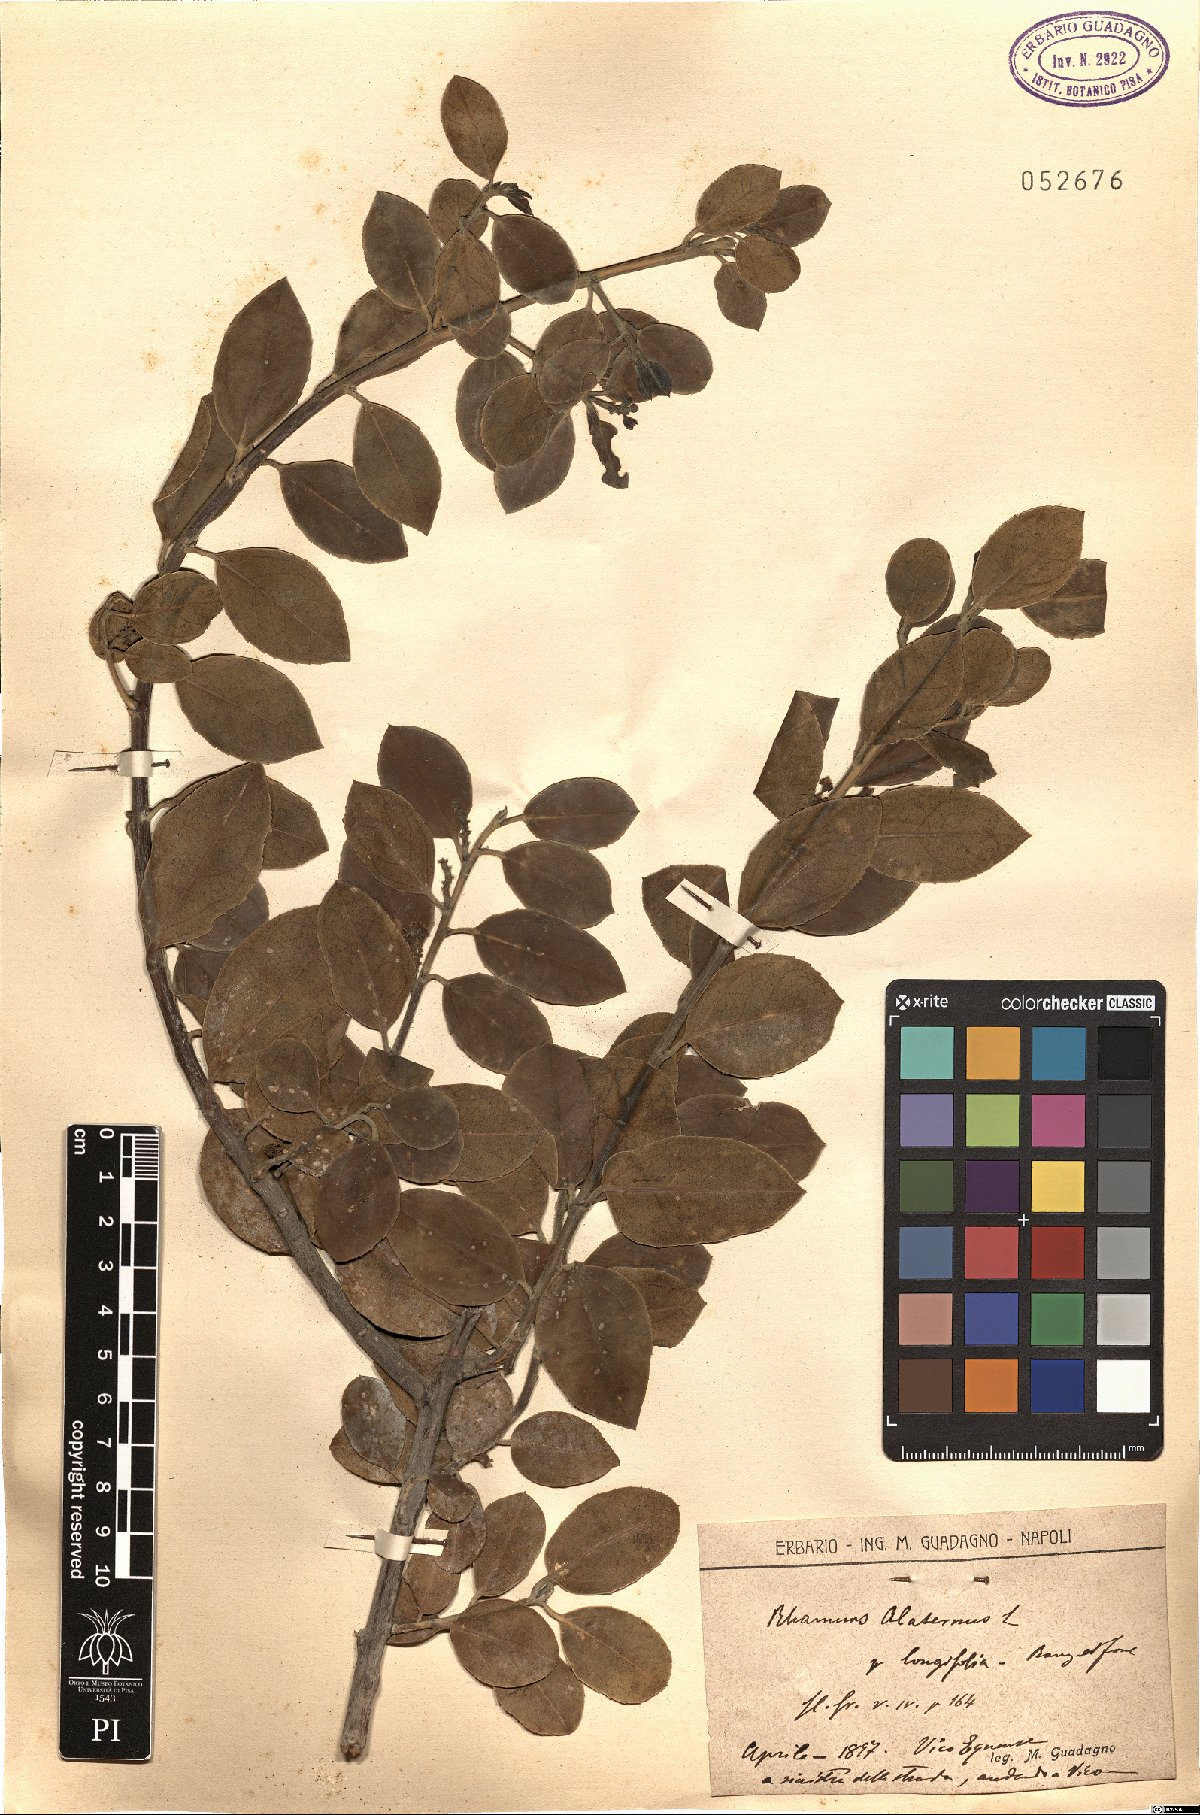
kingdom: Plantae
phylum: Tracheophyta
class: Magnoliopsida
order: Rosales
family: Rhamnaceae
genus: Rhamnus
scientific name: Rhamnus alaternus
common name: Mediterranean buckthorn
